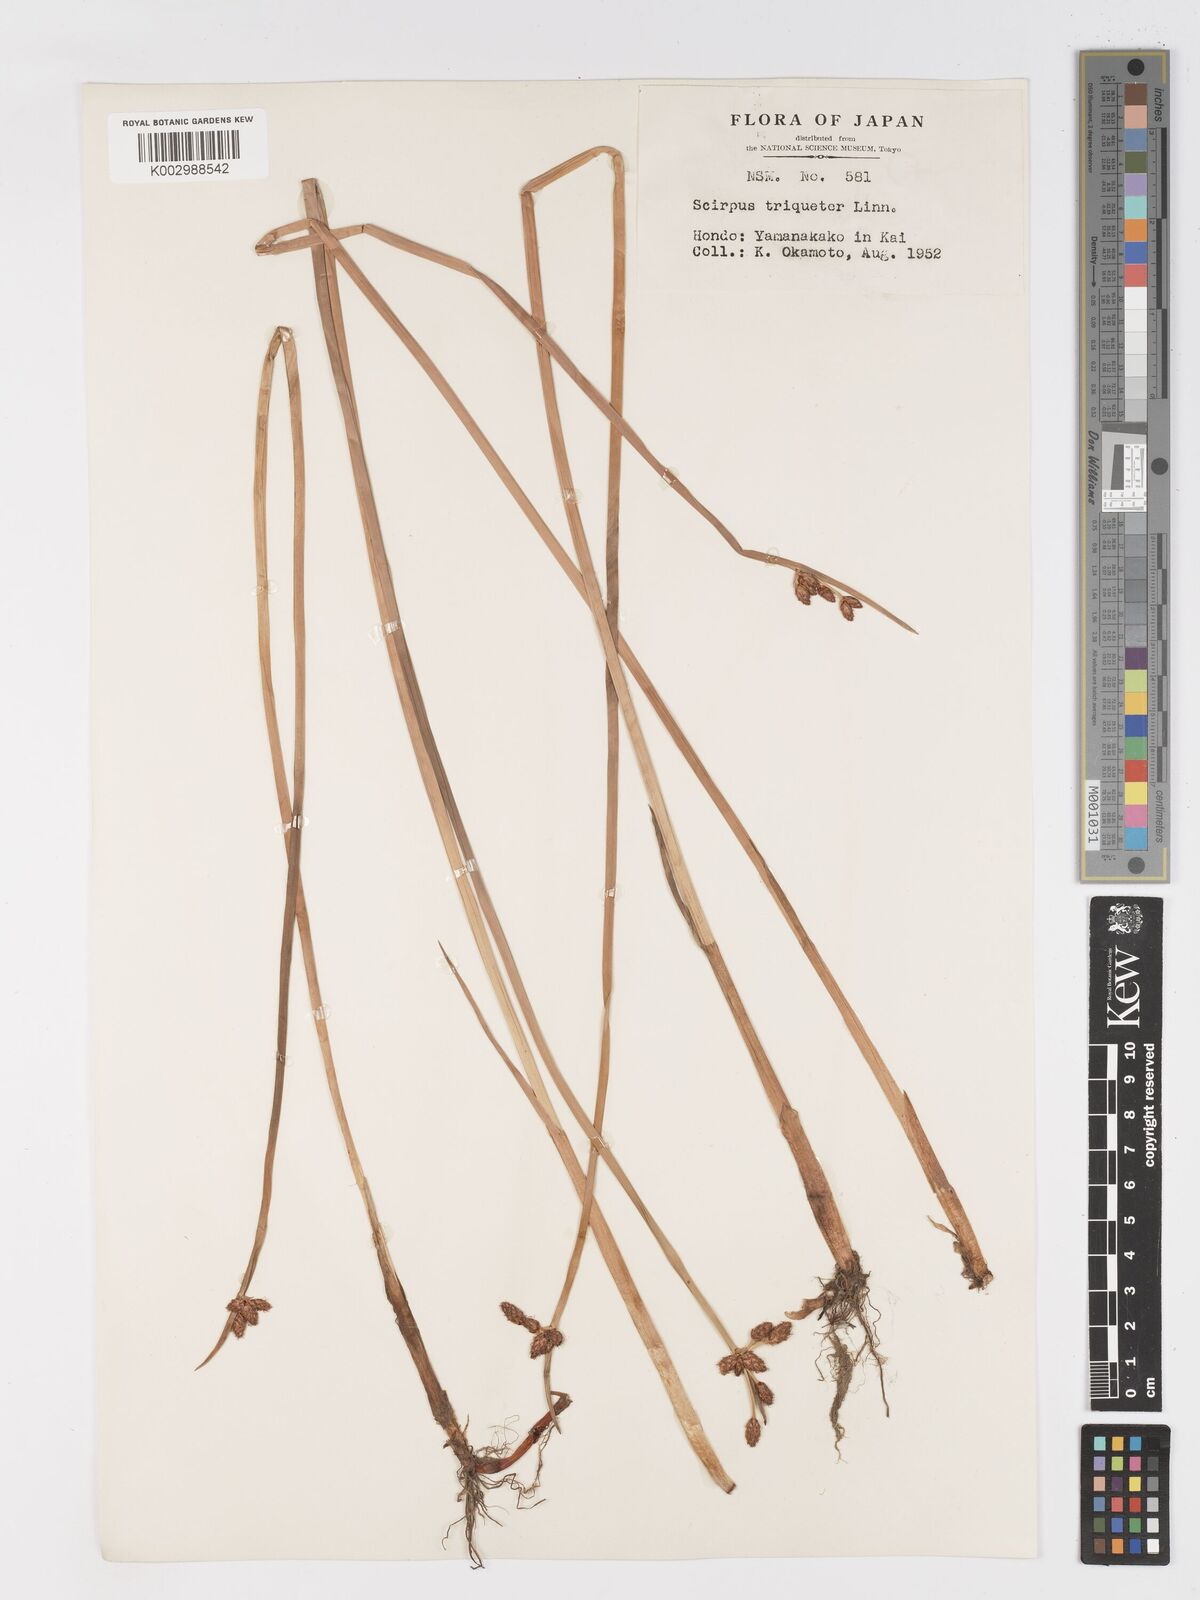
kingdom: Plantae
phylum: Tracheophyta
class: Liliopsida
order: Poales
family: Cyperaceae
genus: Schoenoplectus
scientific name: Schoenoplectus triqueter
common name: Triangular club-rush
